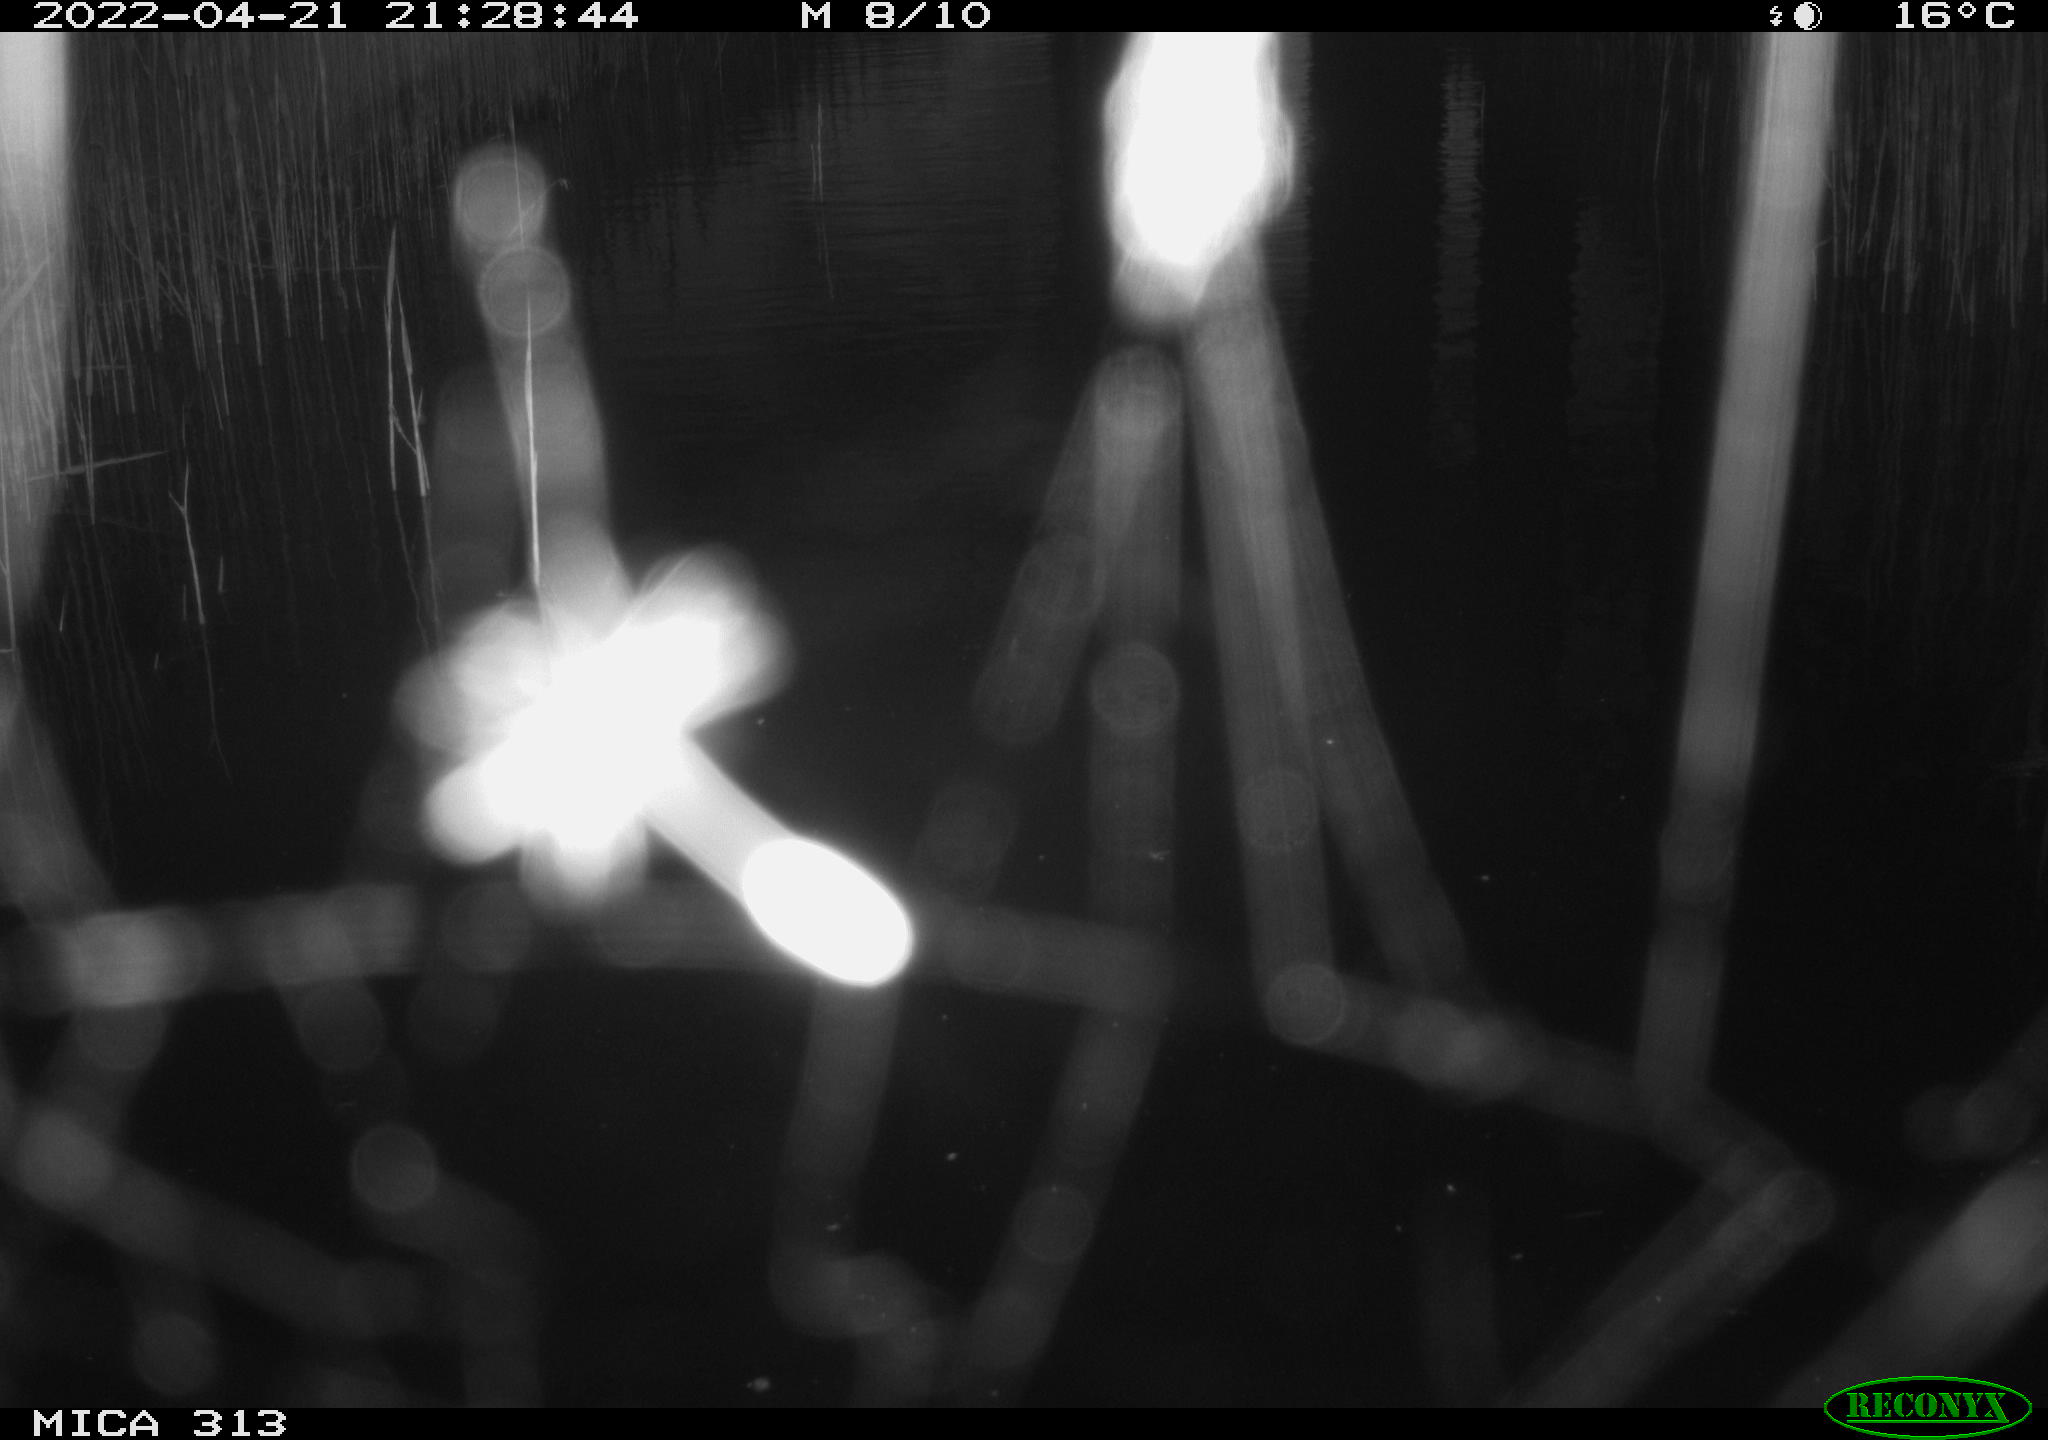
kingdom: Animalia
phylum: Chordata
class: Aves
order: Gruiformes
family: Rallidae
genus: Fulica
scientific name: Fulica atra
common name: Eurasian coot
